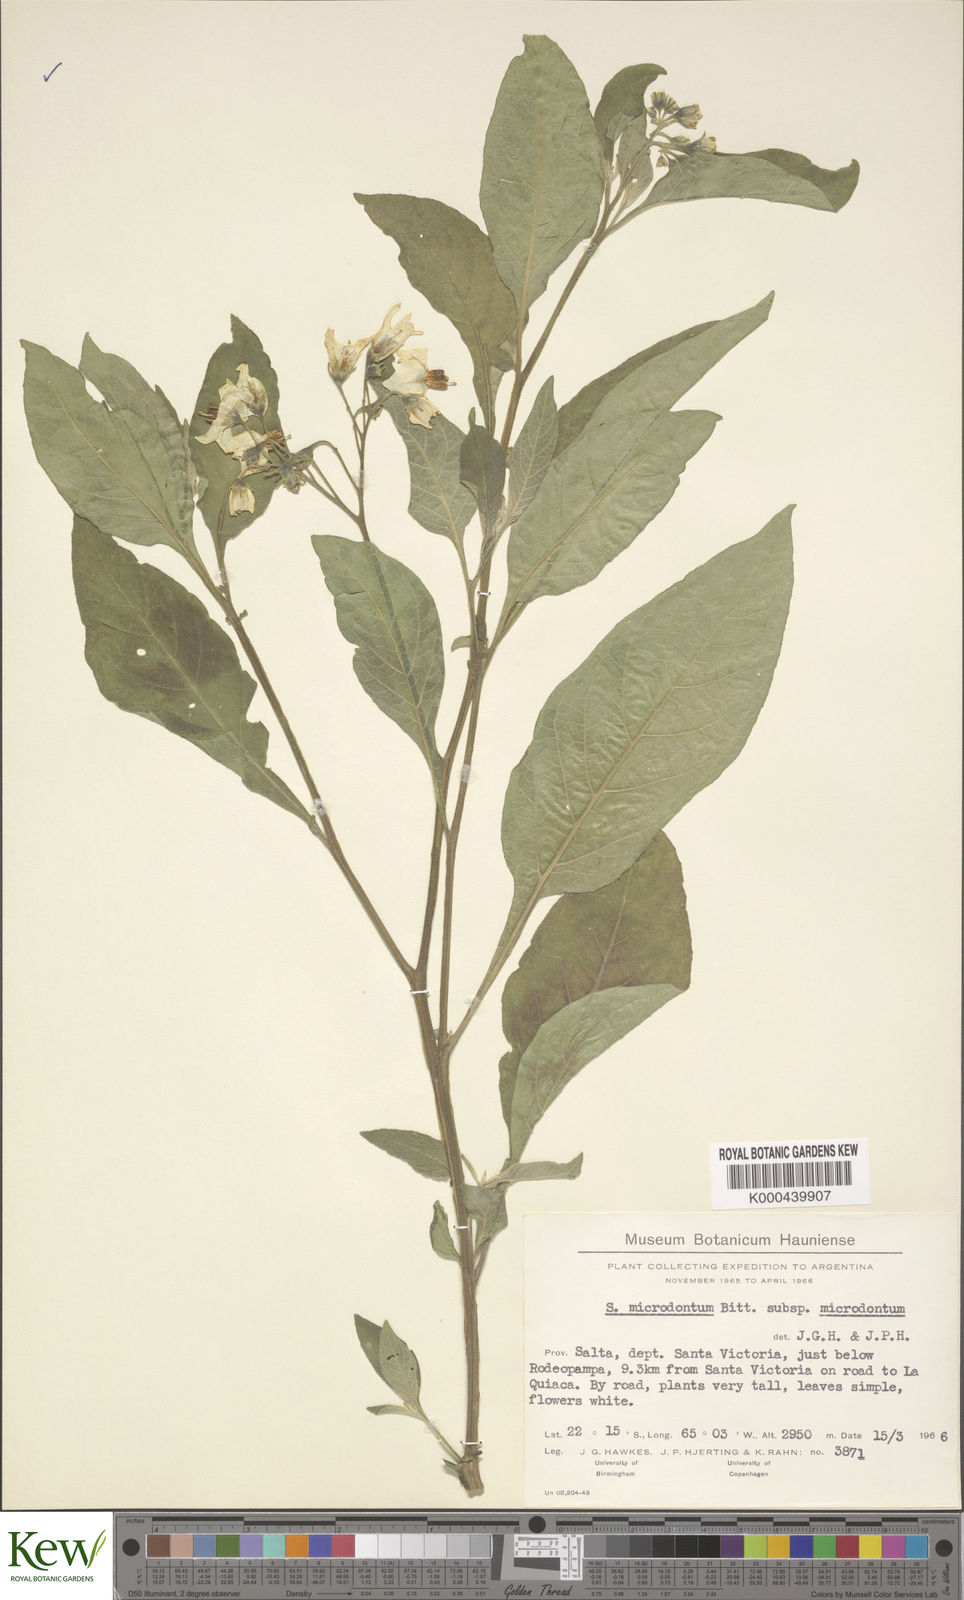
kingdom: Plantae
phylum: Tracheophyta
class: Magnoliopsida
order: Solanales
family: Solanaceae
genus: Solanum
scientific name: Solanum microdontum
